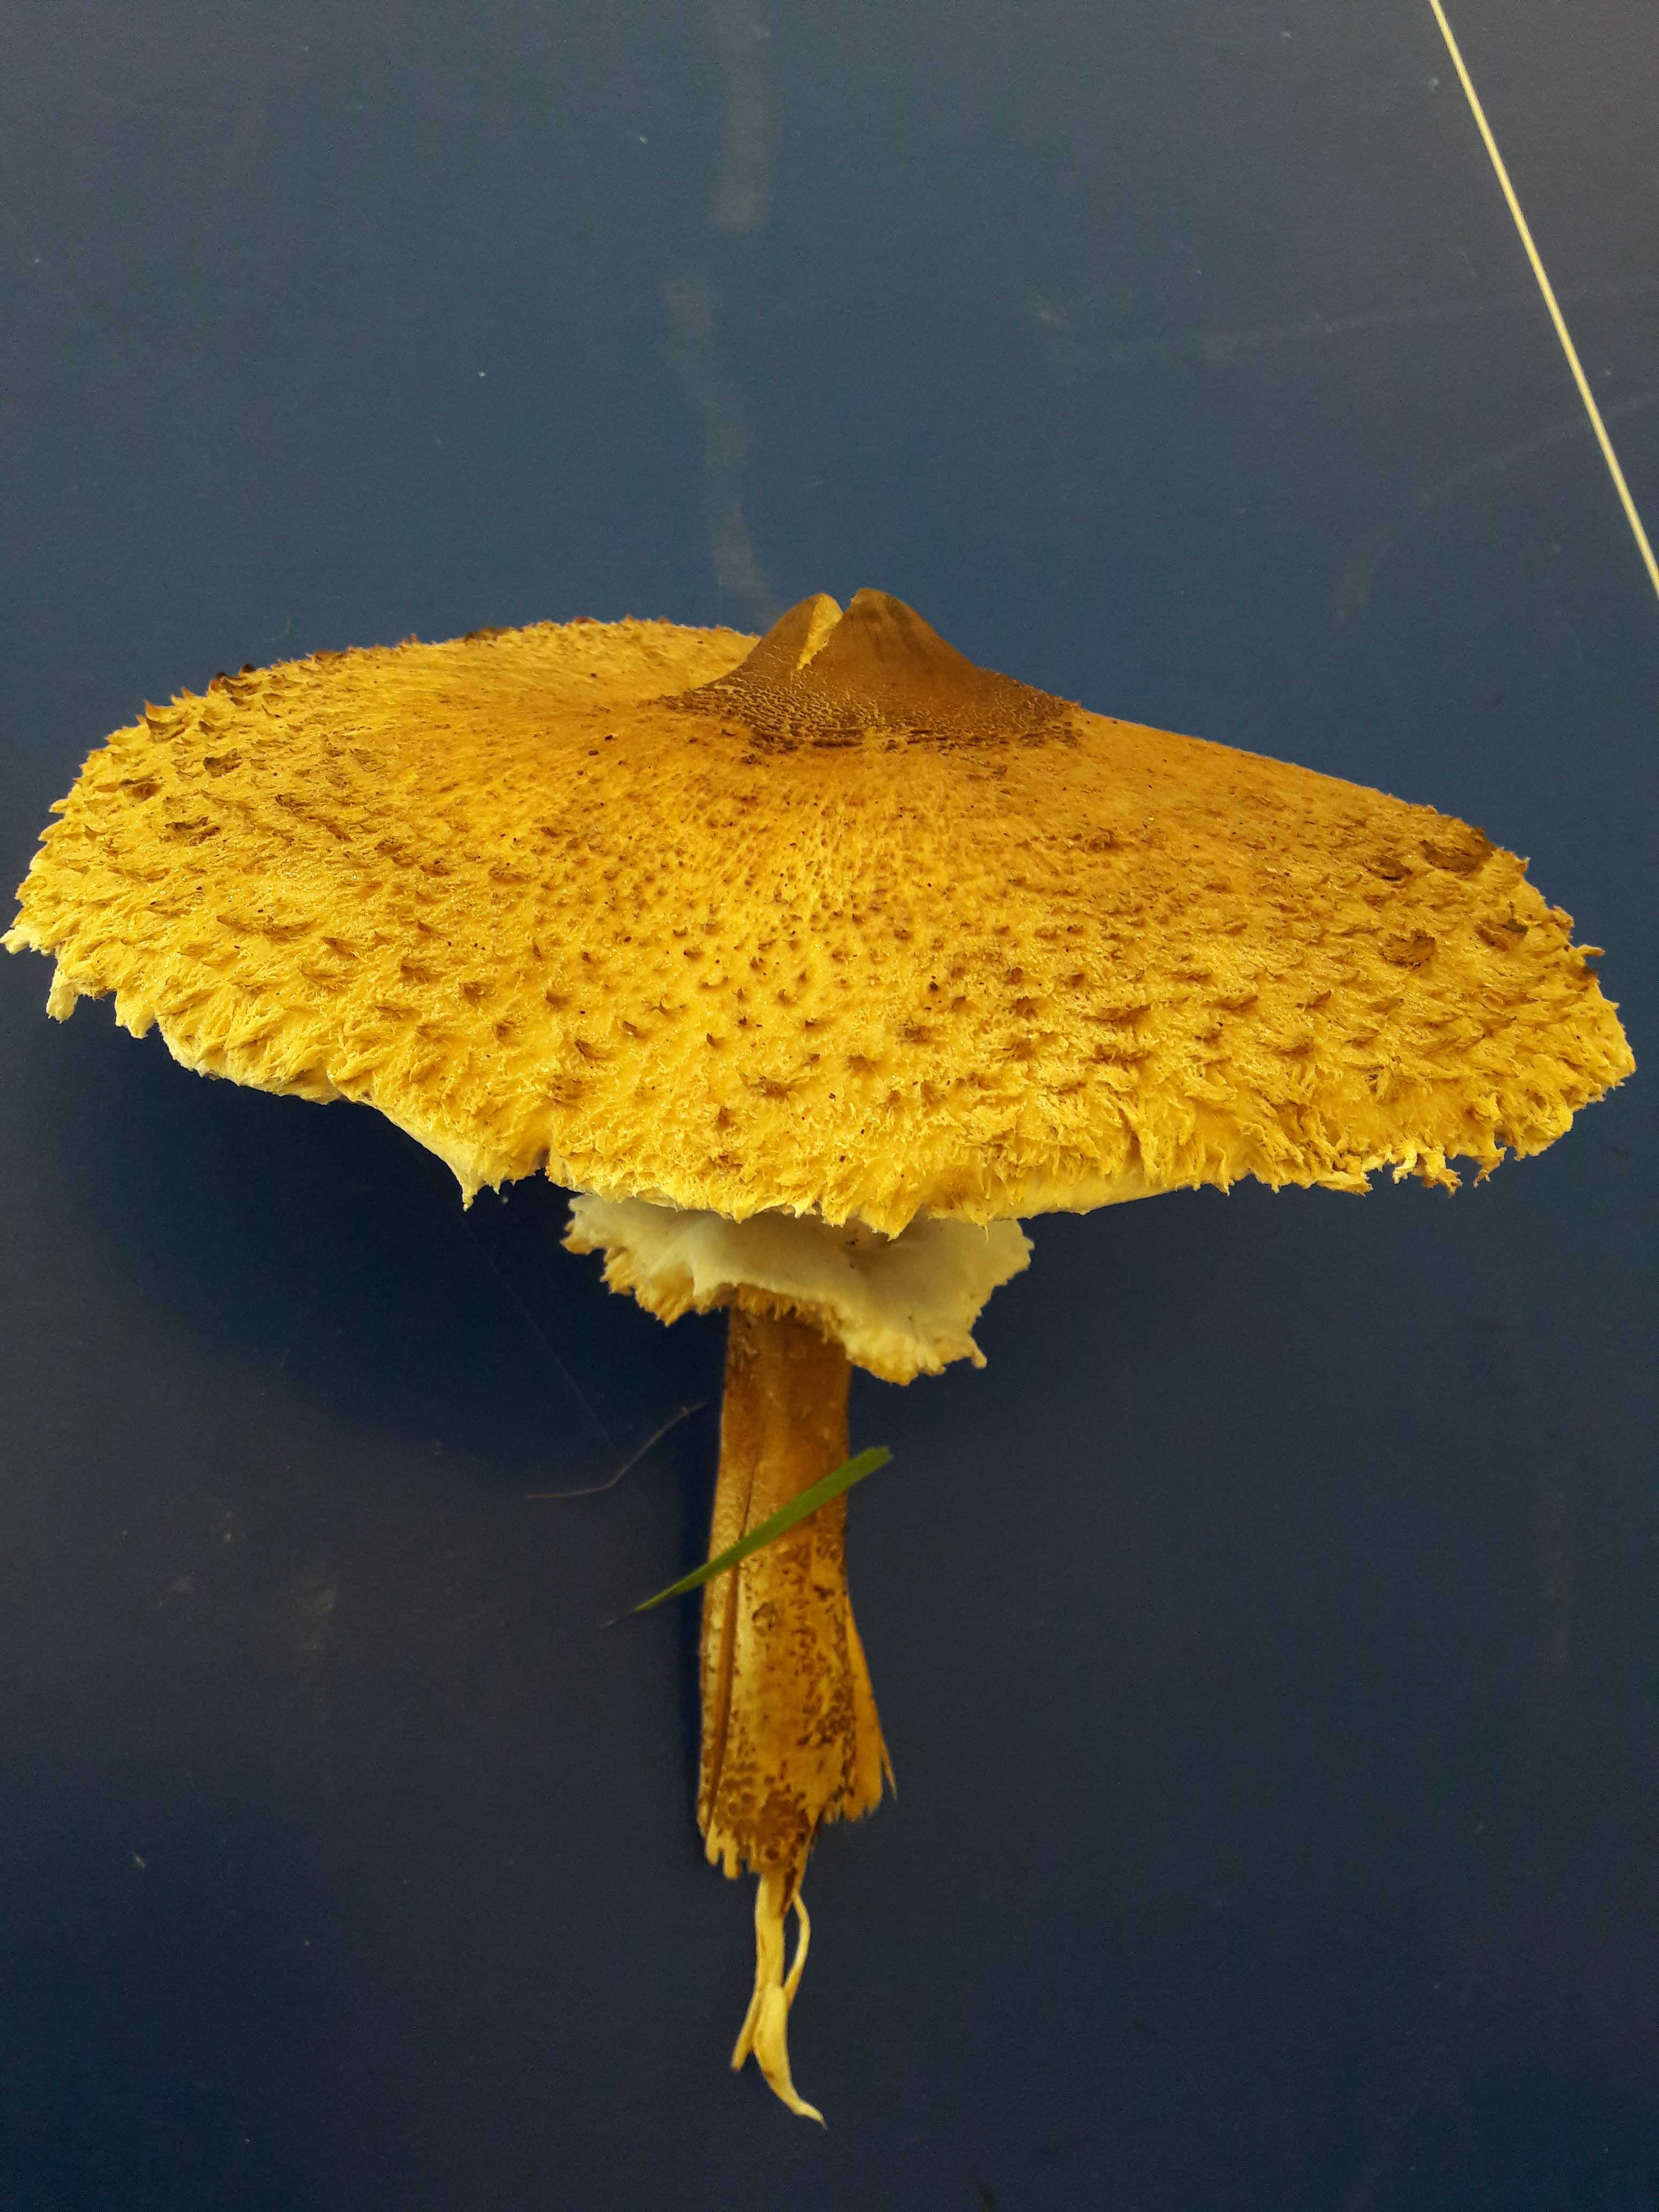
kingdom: Fungi
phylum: Basidiomycota
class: Agaricomycetes
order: Agaricales
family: Agaricaceae
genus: Macrolepiota
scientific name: Macrolepiota
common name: kæmpeparasolhat
